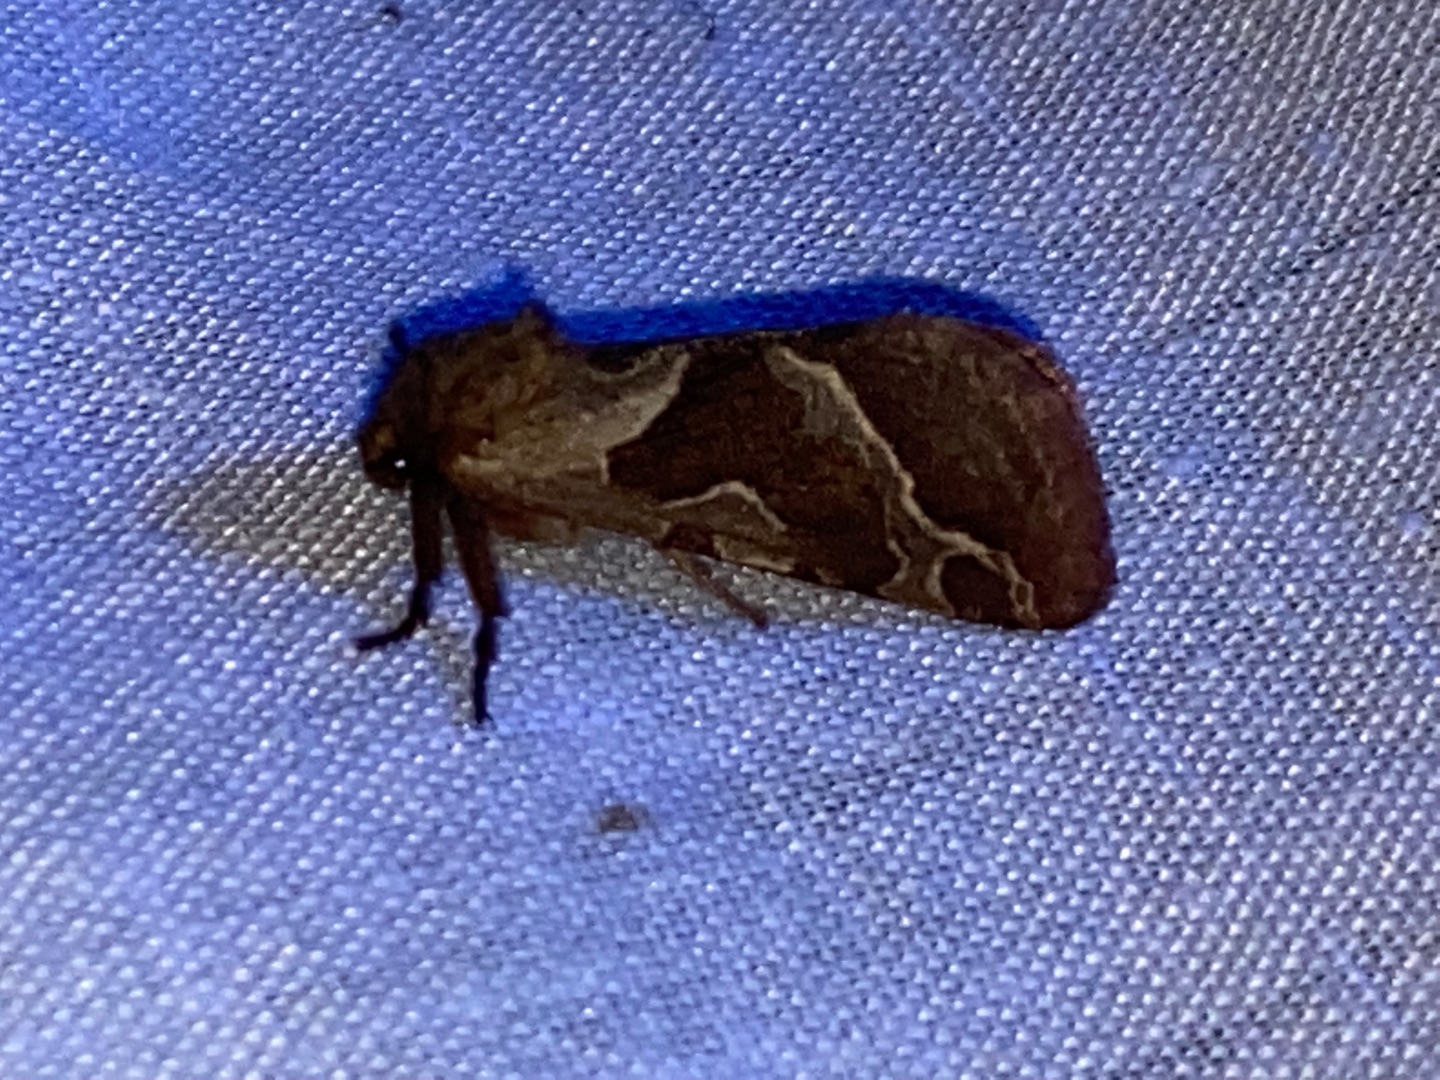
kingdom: Animalia
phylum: Arthropoda
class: Insecta
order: Lepidoptera
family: Hepialidae
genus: Triodia
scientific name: Triodia sylvina
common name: Skræpperodæder
